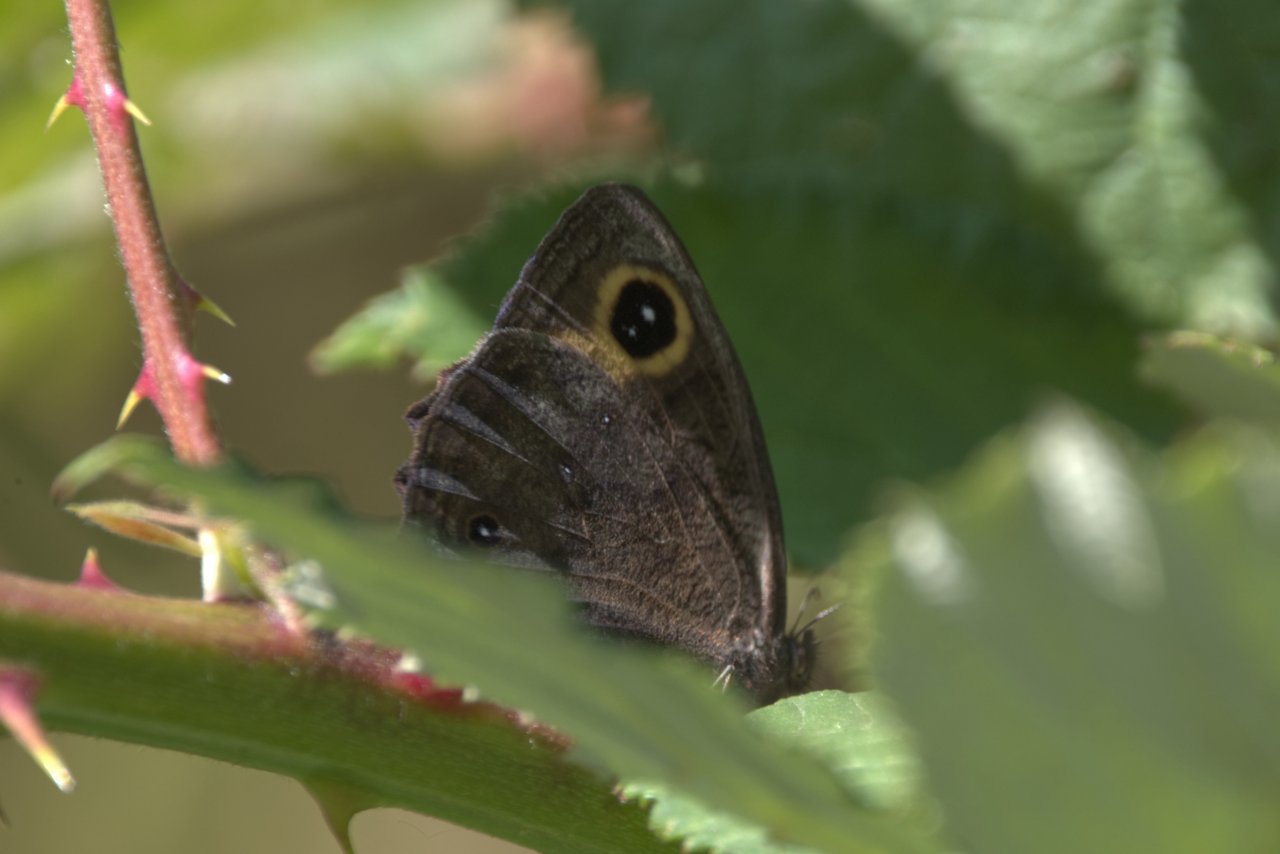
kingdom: Animalia
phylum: Arthropoda
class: Insecta
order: Lepidoptera
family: Nymphalidae
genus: Cercyonis
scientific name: Cercyonis pegala
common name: Common Wood-Nymph
